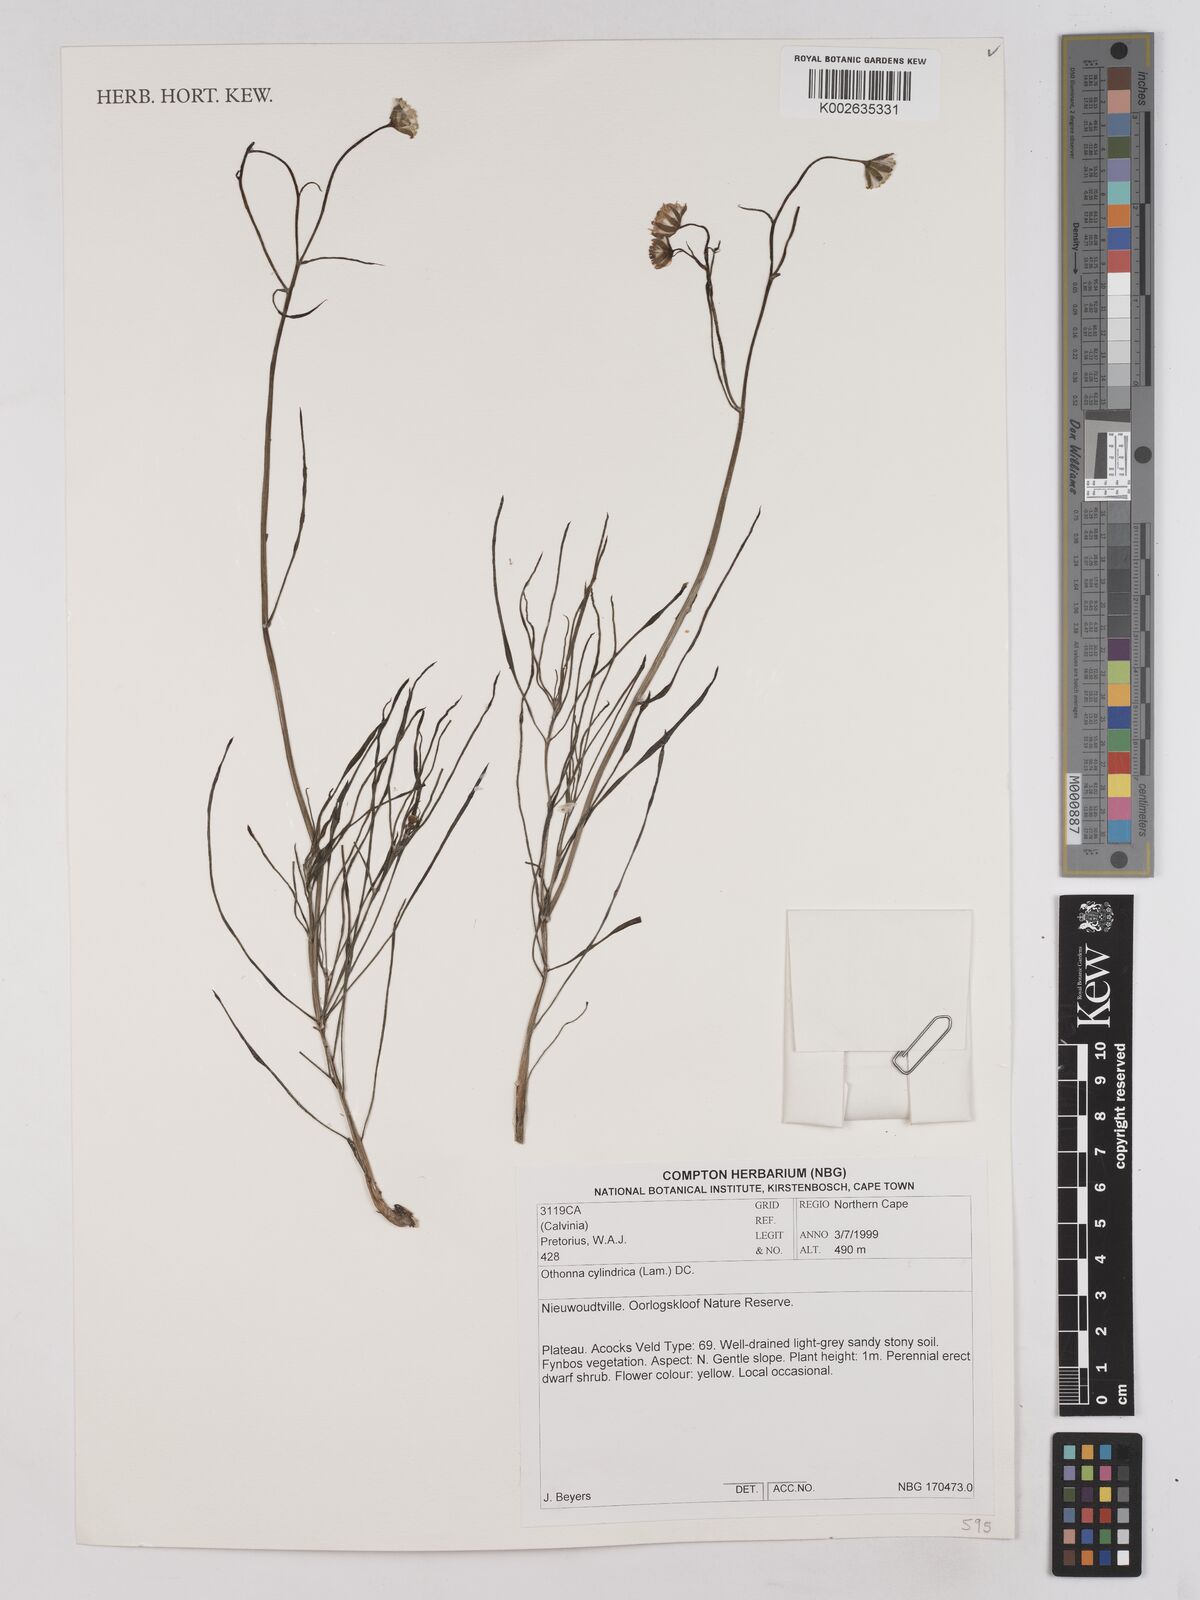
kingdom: Plantae
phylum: Tracheophyta
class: Magnoliopsida
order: Asterales
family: Asteraceae
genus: Crassothonna
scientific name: Crassothonna cylindrica
